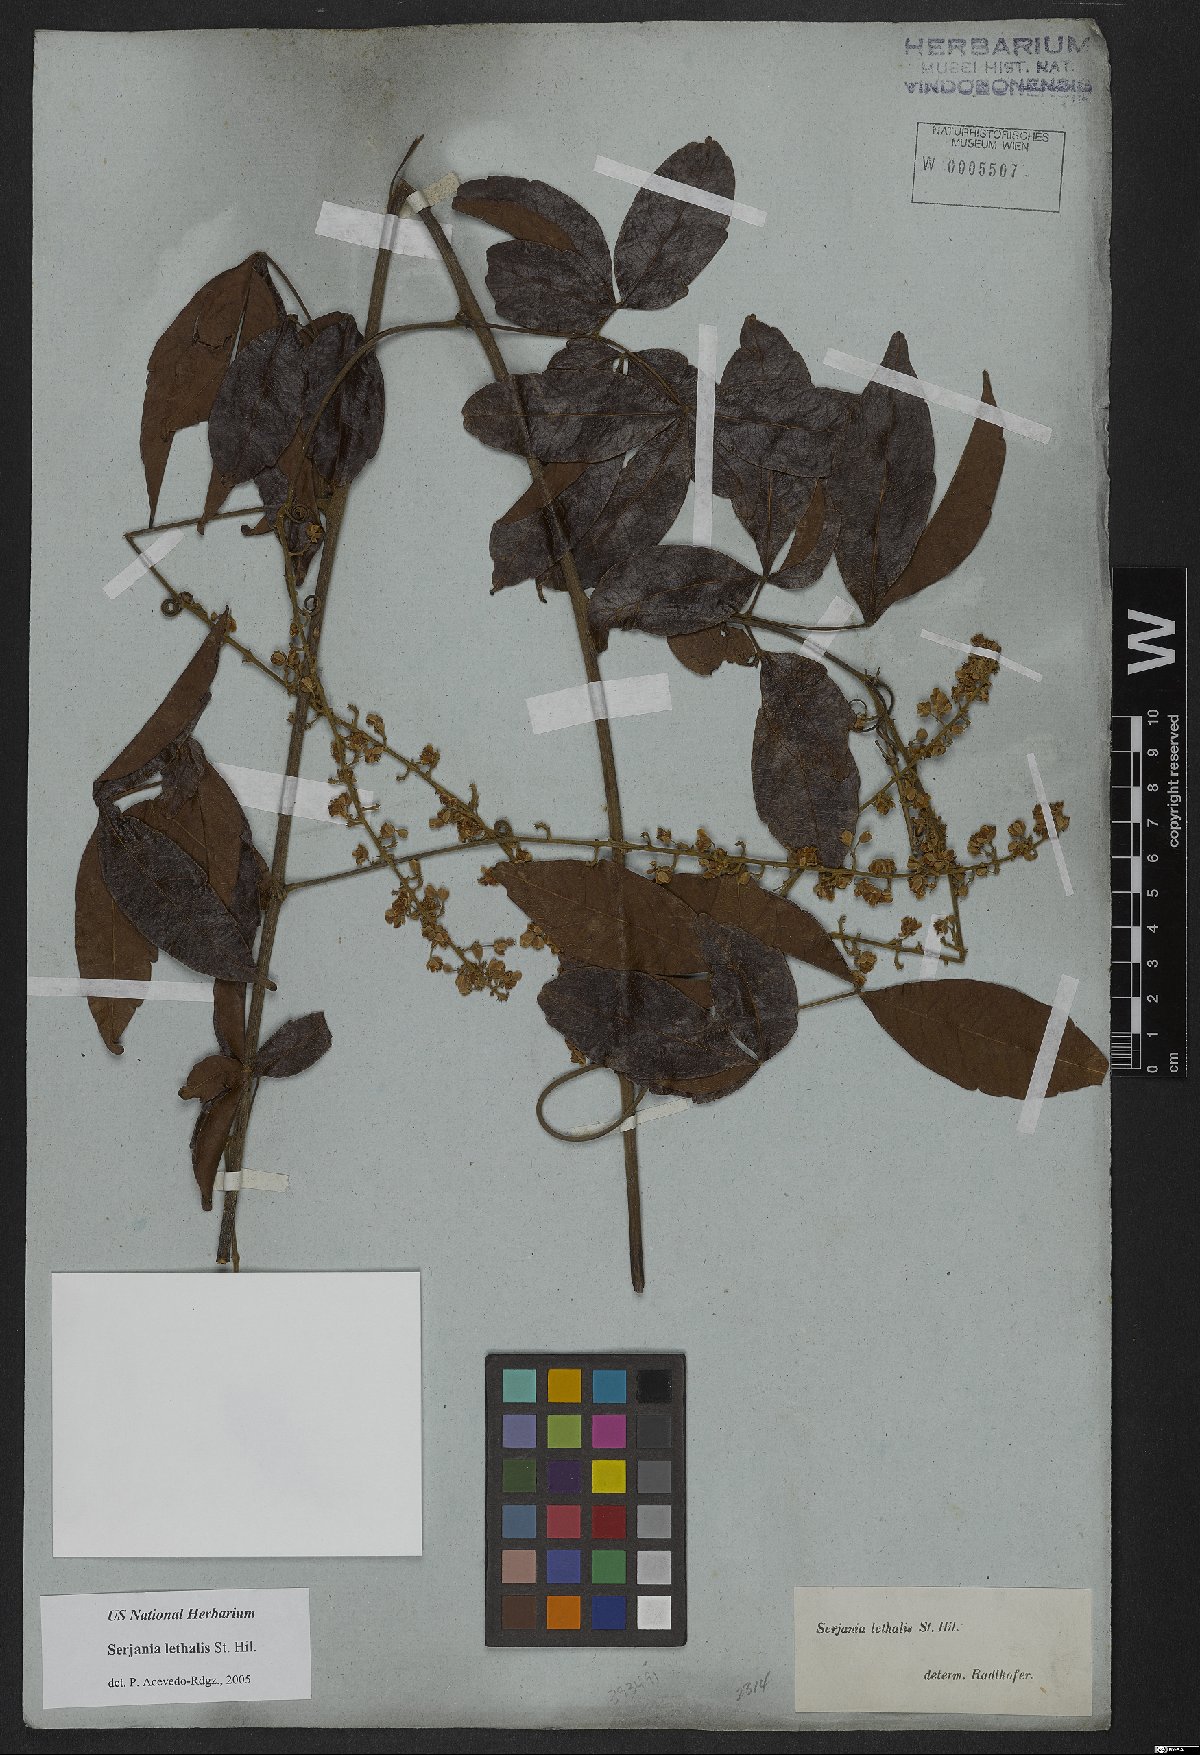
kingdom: Plantae
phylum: Tracheophyta
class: Magnoliopsida
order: Sapindales
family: Sapindaceae
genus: Serjania
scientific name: Serjania lethalis
